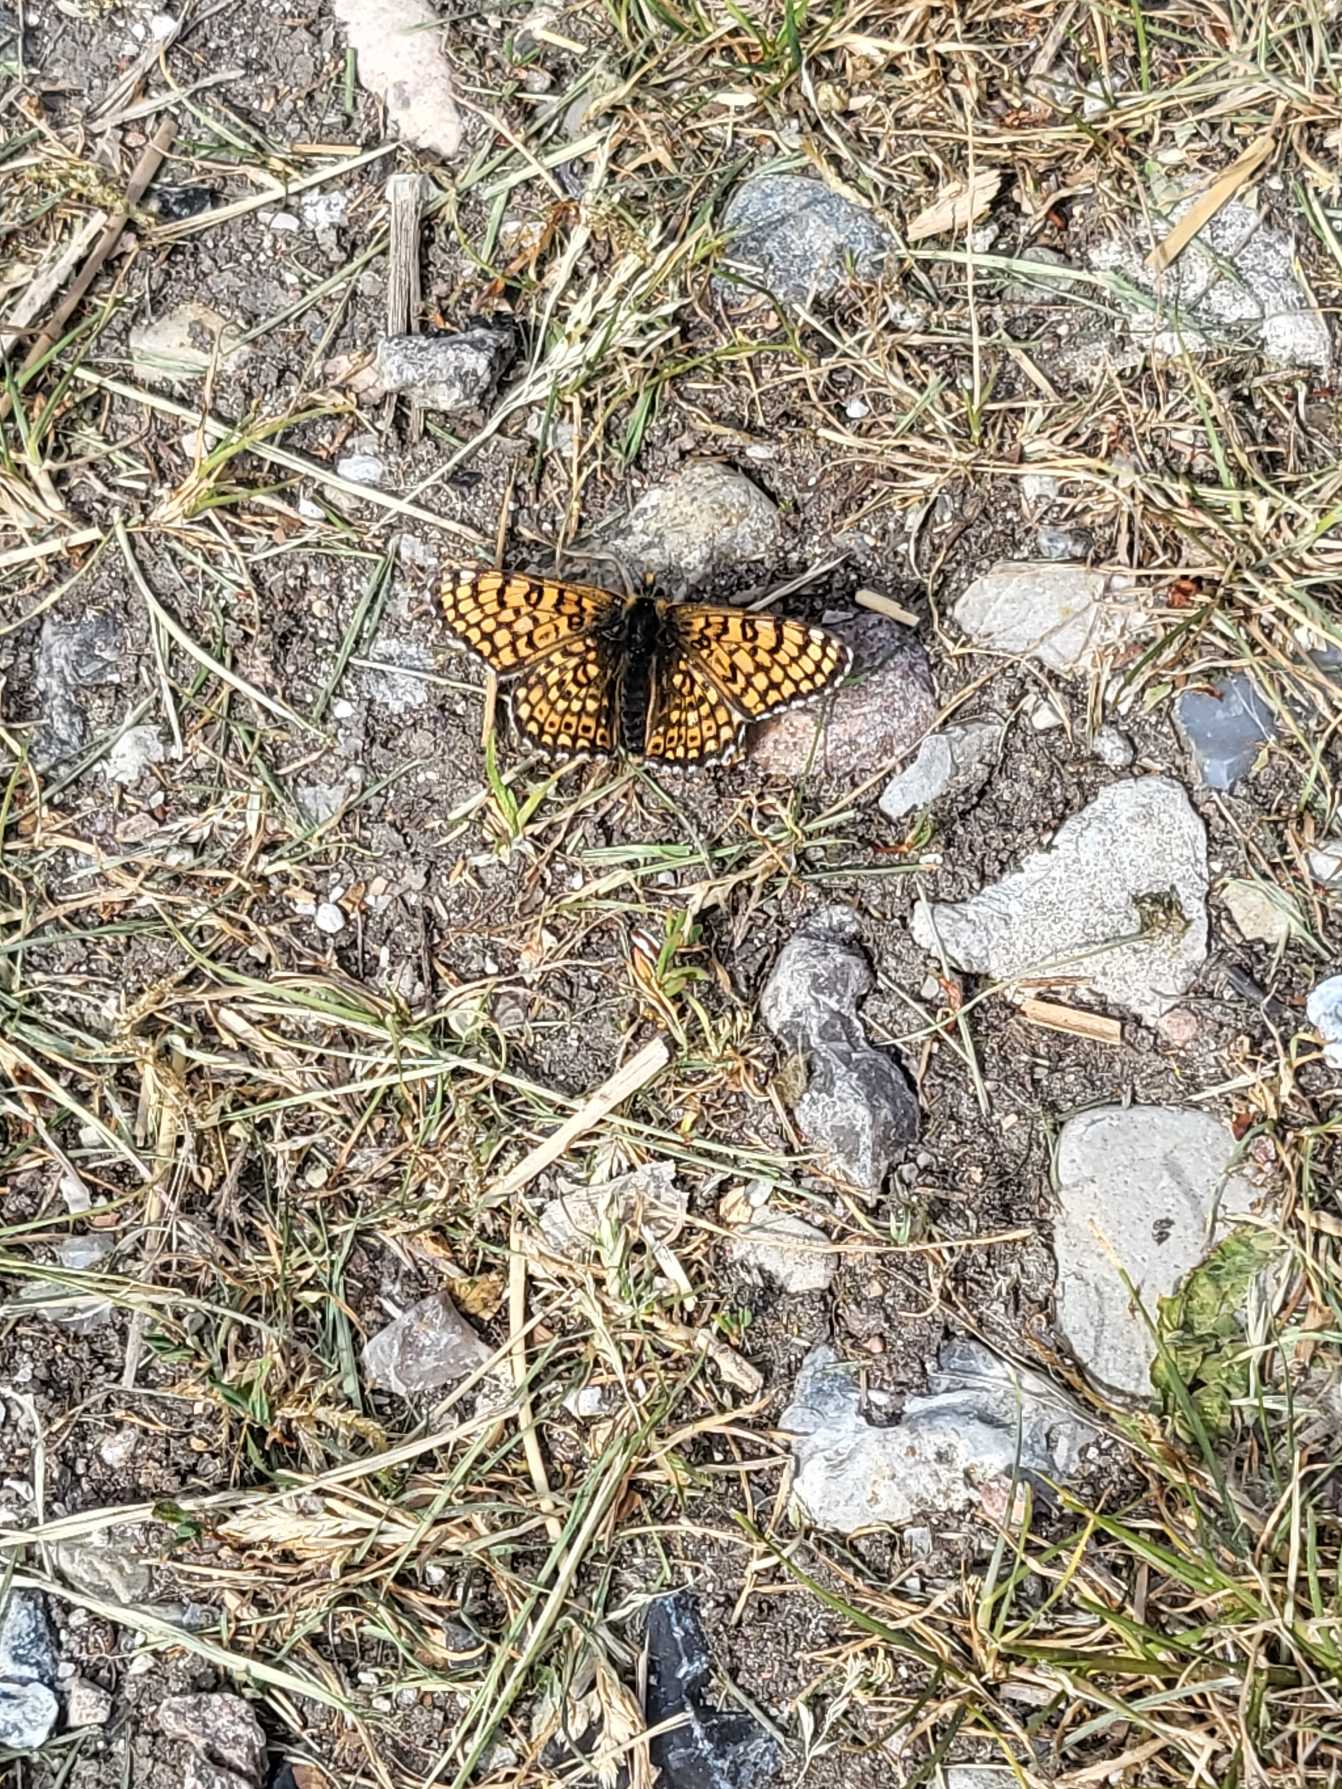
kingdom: Animalia
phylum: Arthropoda
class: Insecta
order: Lepidoptera
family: Nymphalidae
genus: Melitaea
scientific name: Melitaea cinxia
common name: Okkergul pletvinge
